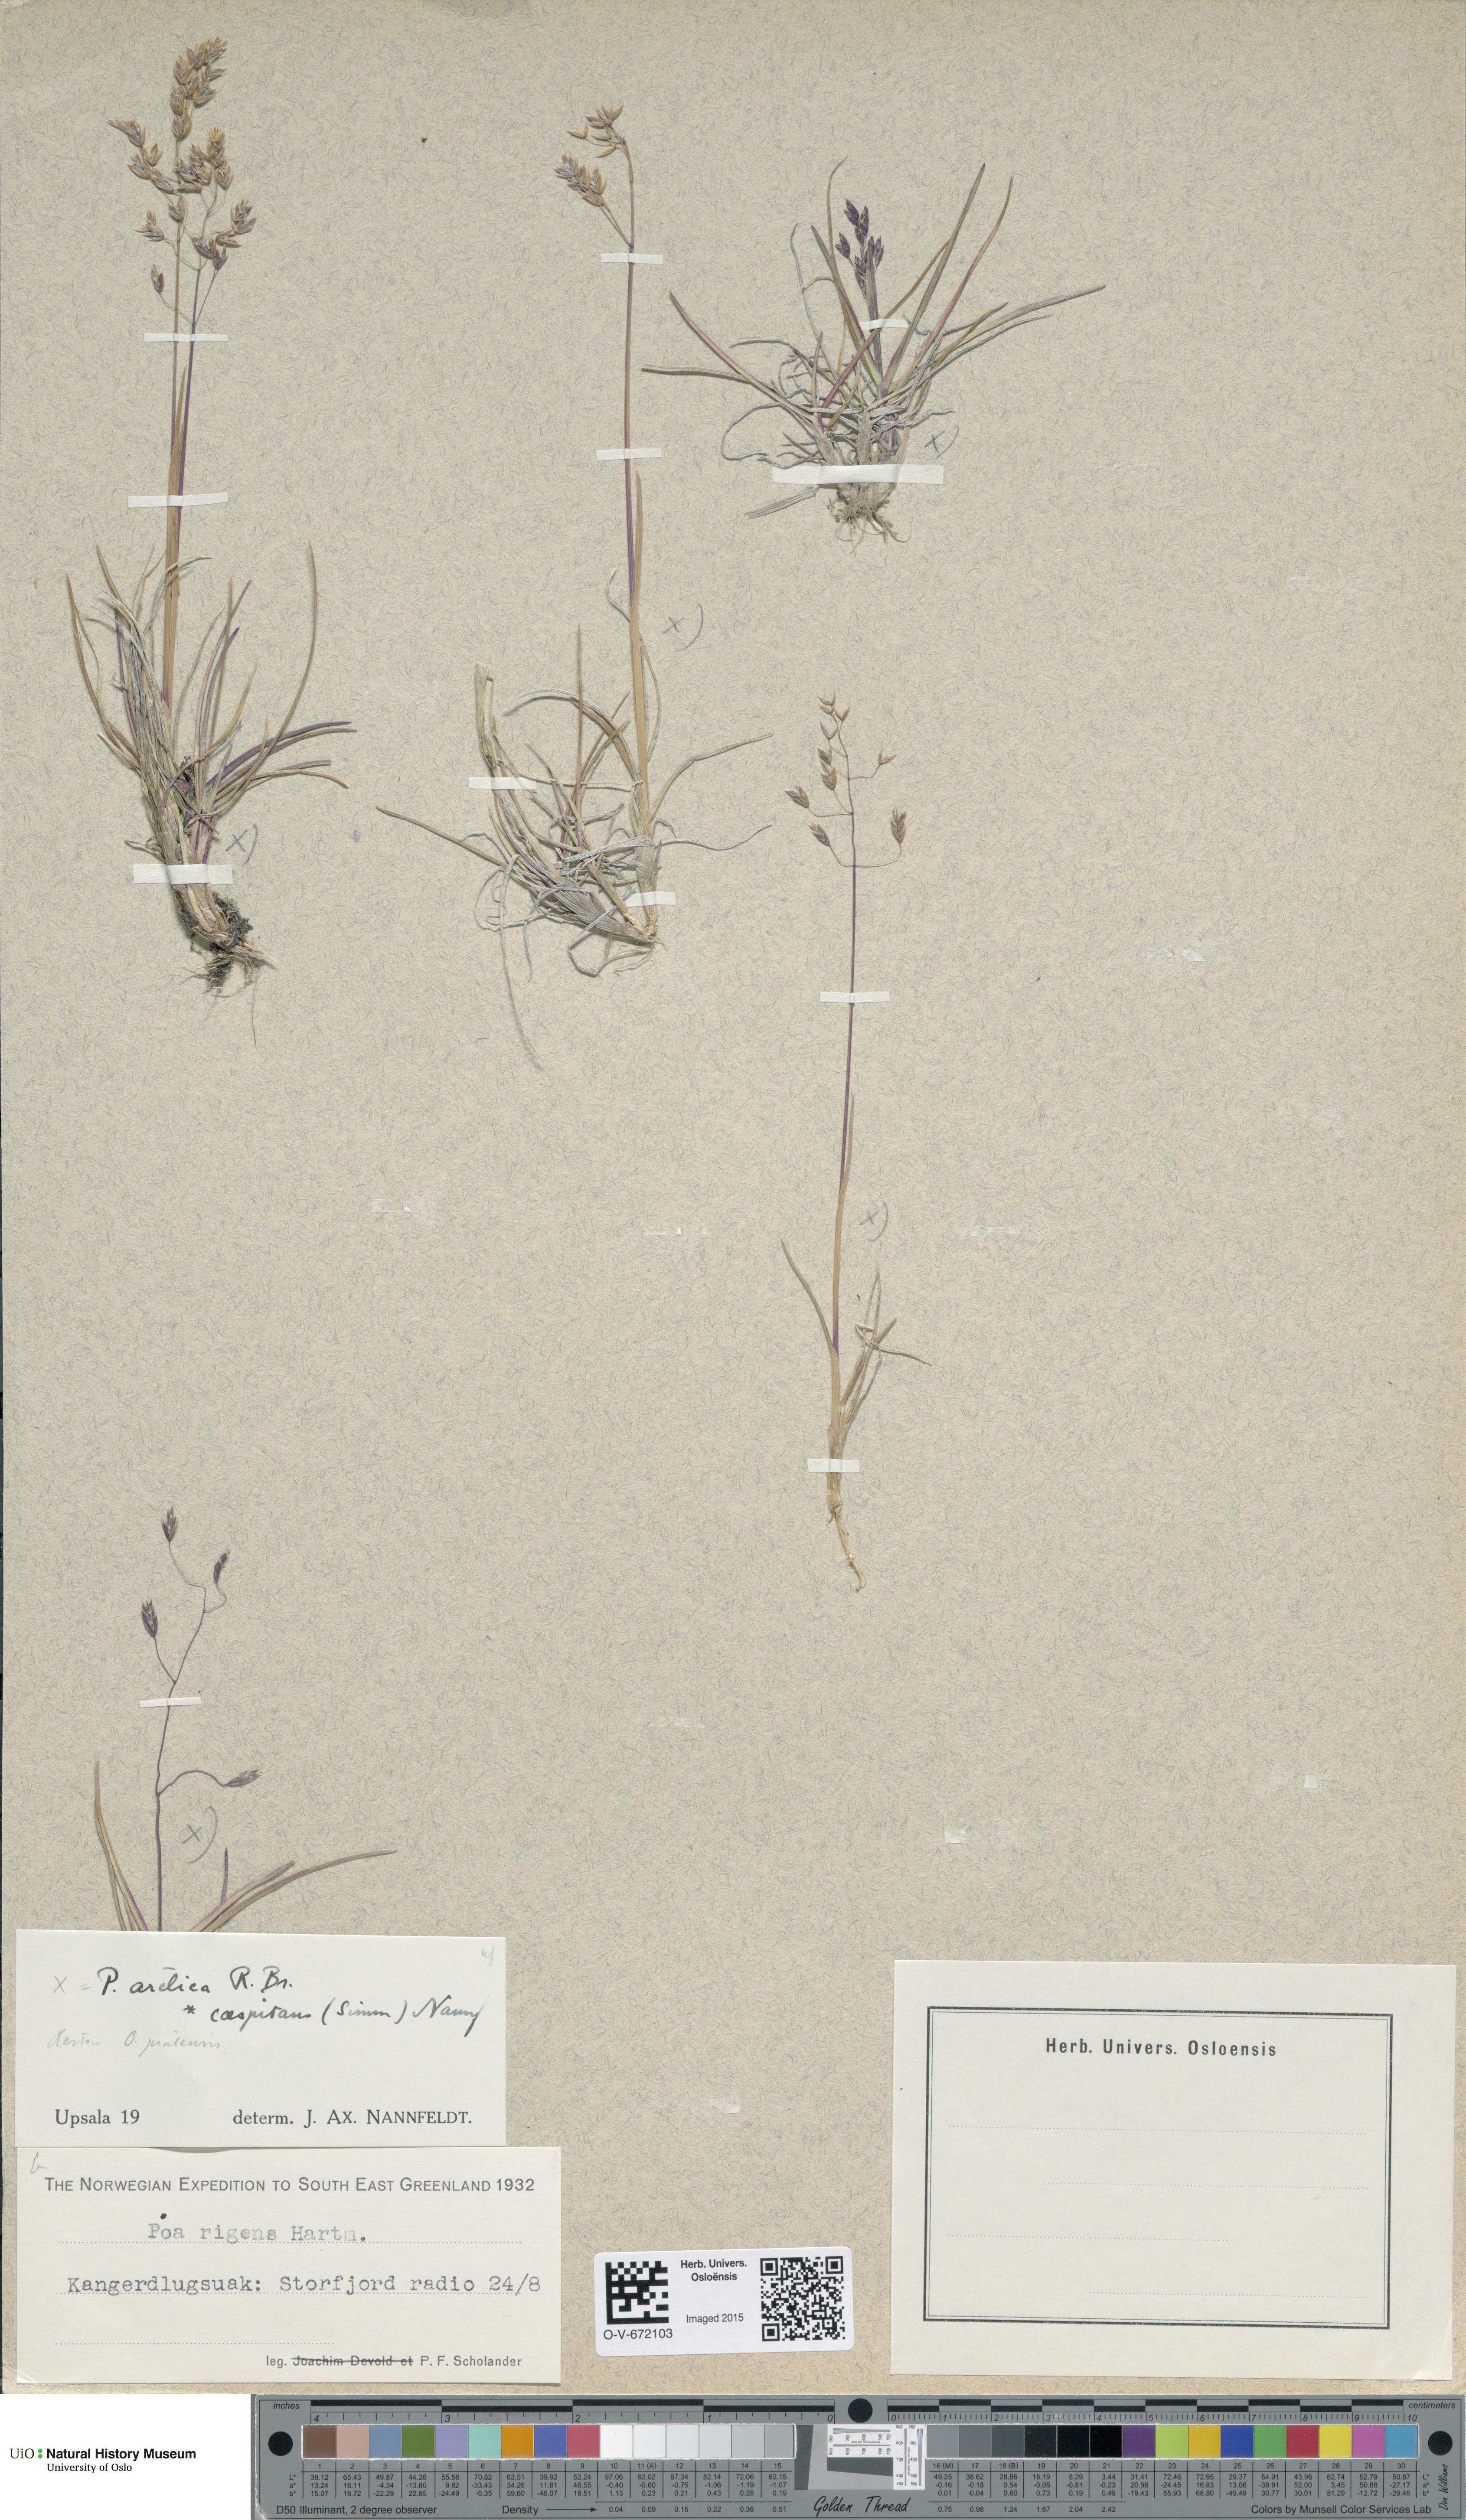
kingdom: Plantae
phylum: Tracheophyta
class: Liliopsida
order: Poales
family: Poaceae
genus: Poa
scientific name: Poa tolmatchewii
